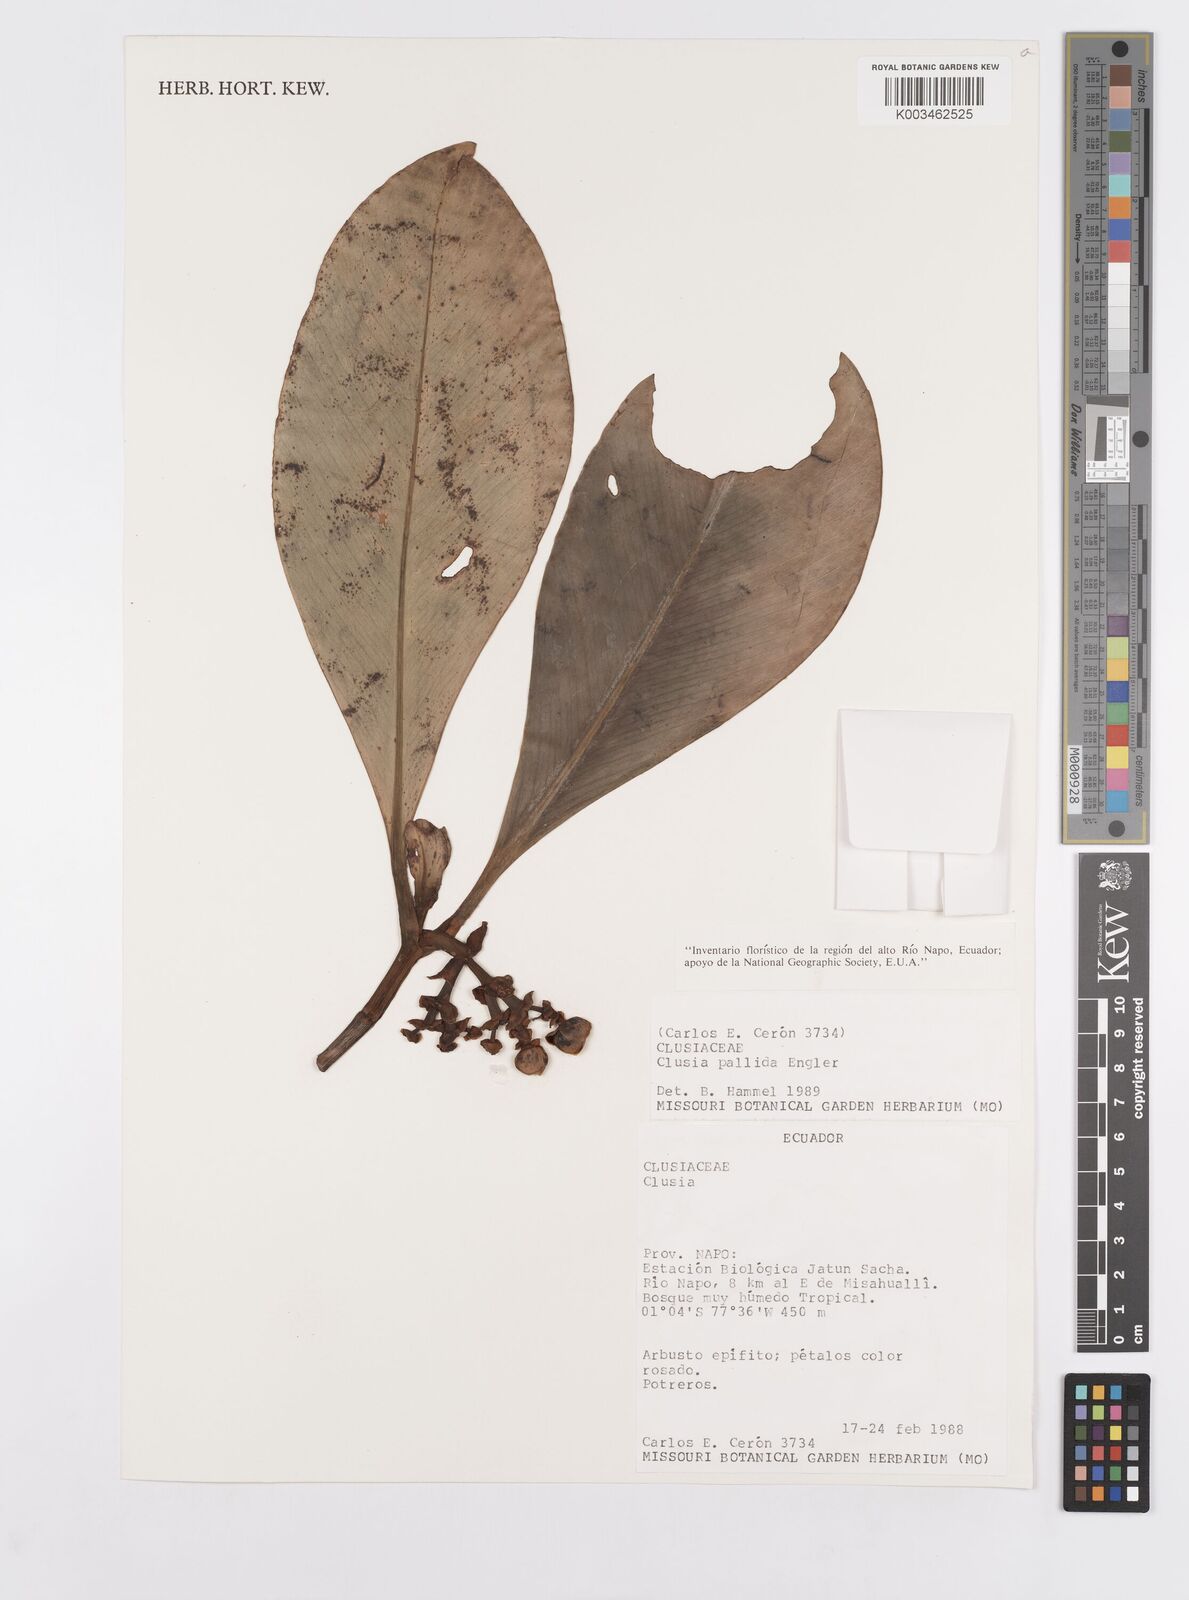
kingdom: Plantae
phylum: Tracheophyta
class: Magnoliopsida
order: Malpighiales
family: Clusiaceae
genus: Clusia
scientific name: Clusia pallida
